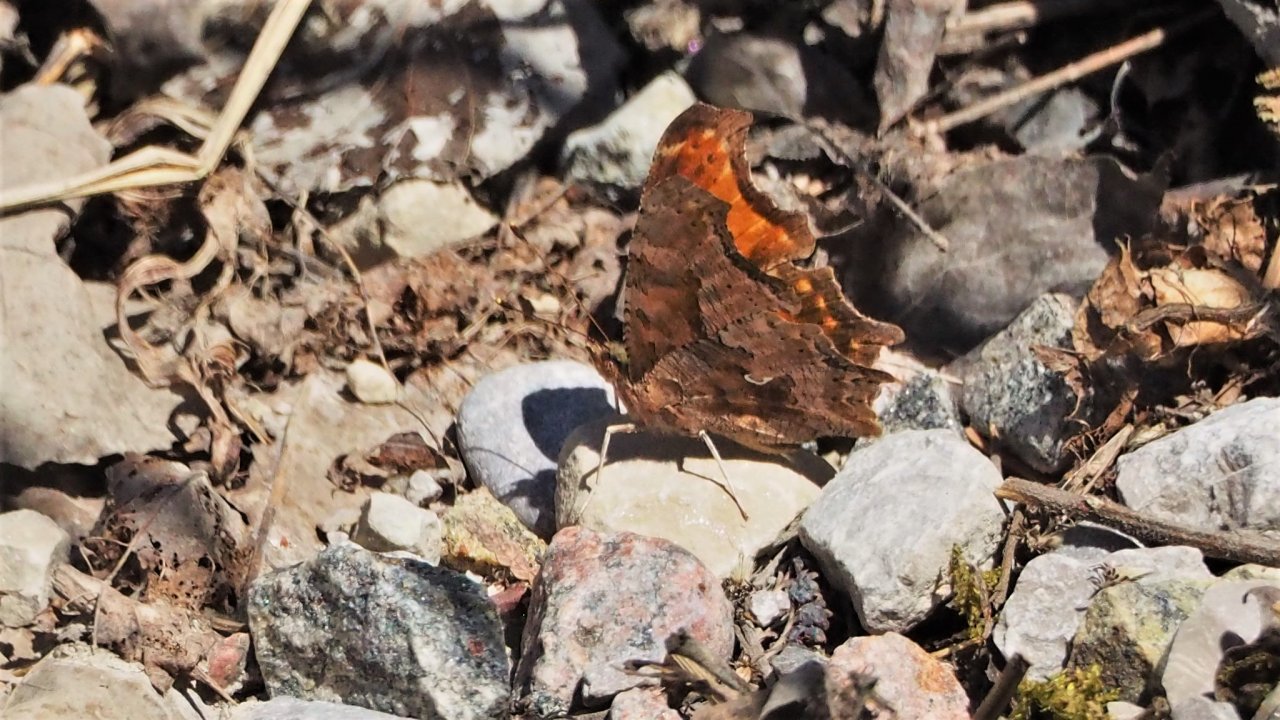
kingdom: Animalia
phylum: Arthropoda
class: Insecta
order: Lepidoptera
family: Nymphalidae
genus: Polygonia
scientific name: Polygonia comma
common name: Eastern Comma
